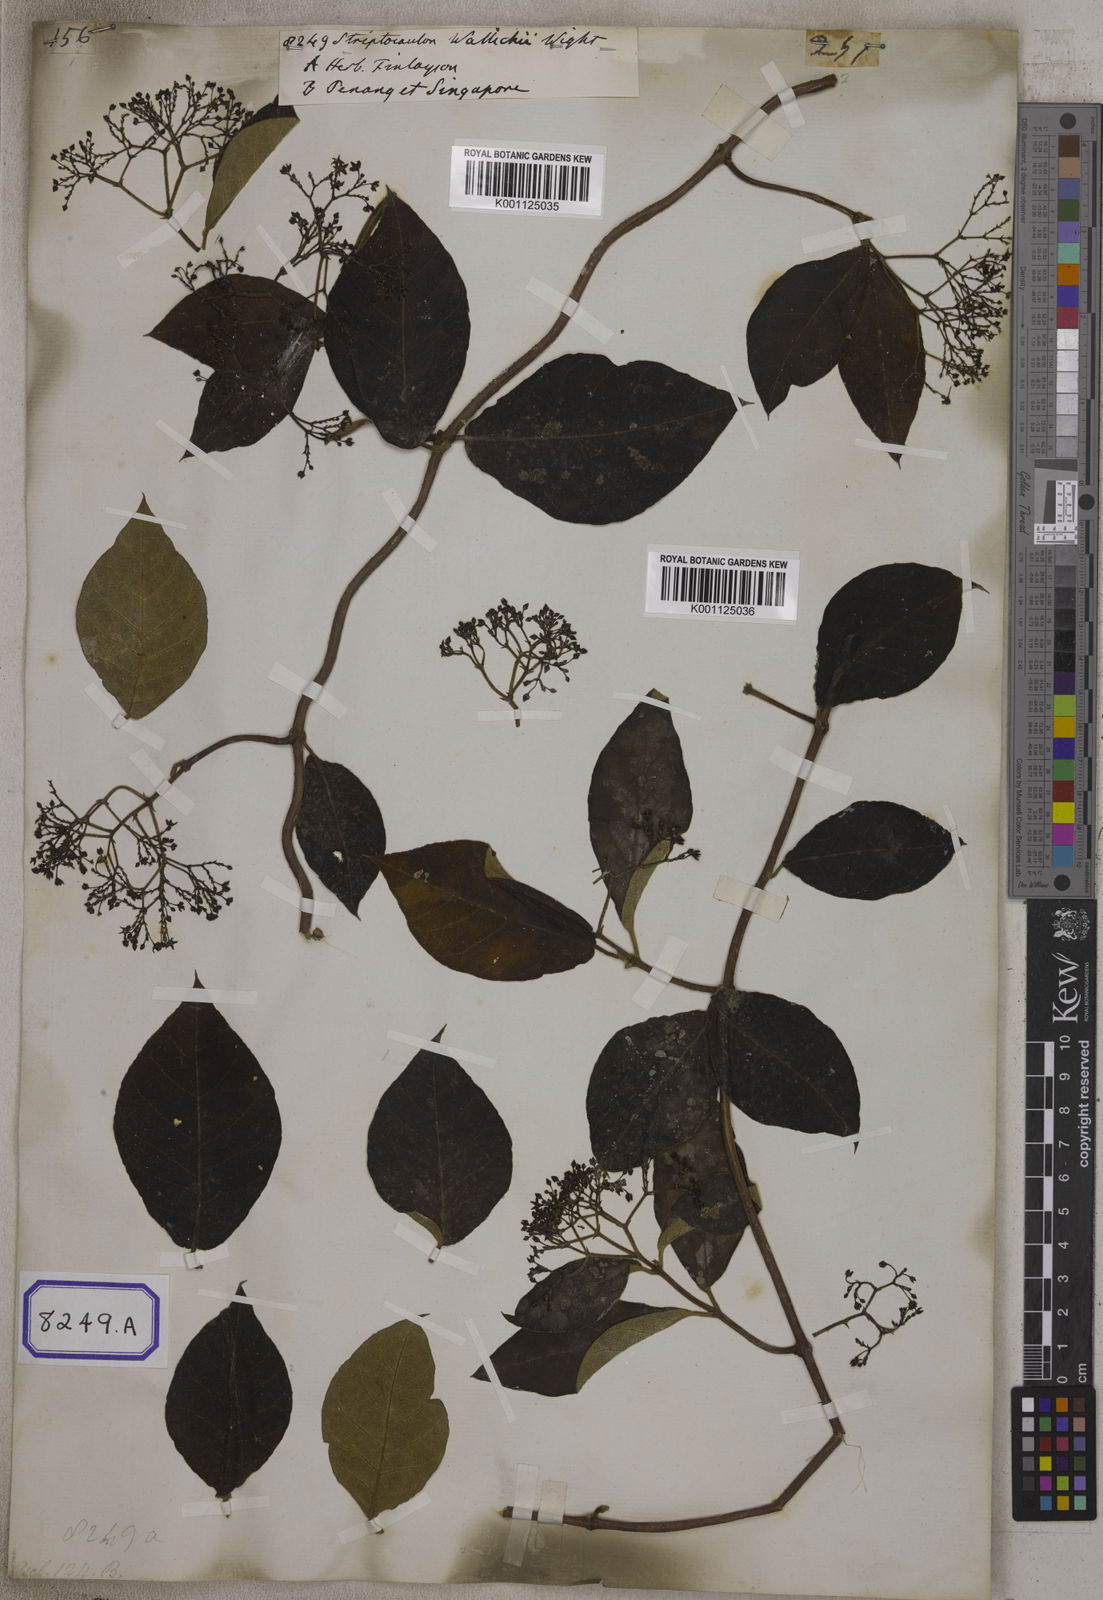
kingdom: Plantae
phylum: Tracheophyta
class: Magnoliopsida
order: Gentianales
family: Apocynaceae
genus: Streptocaulon
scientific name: Streptocaulon wallichii
